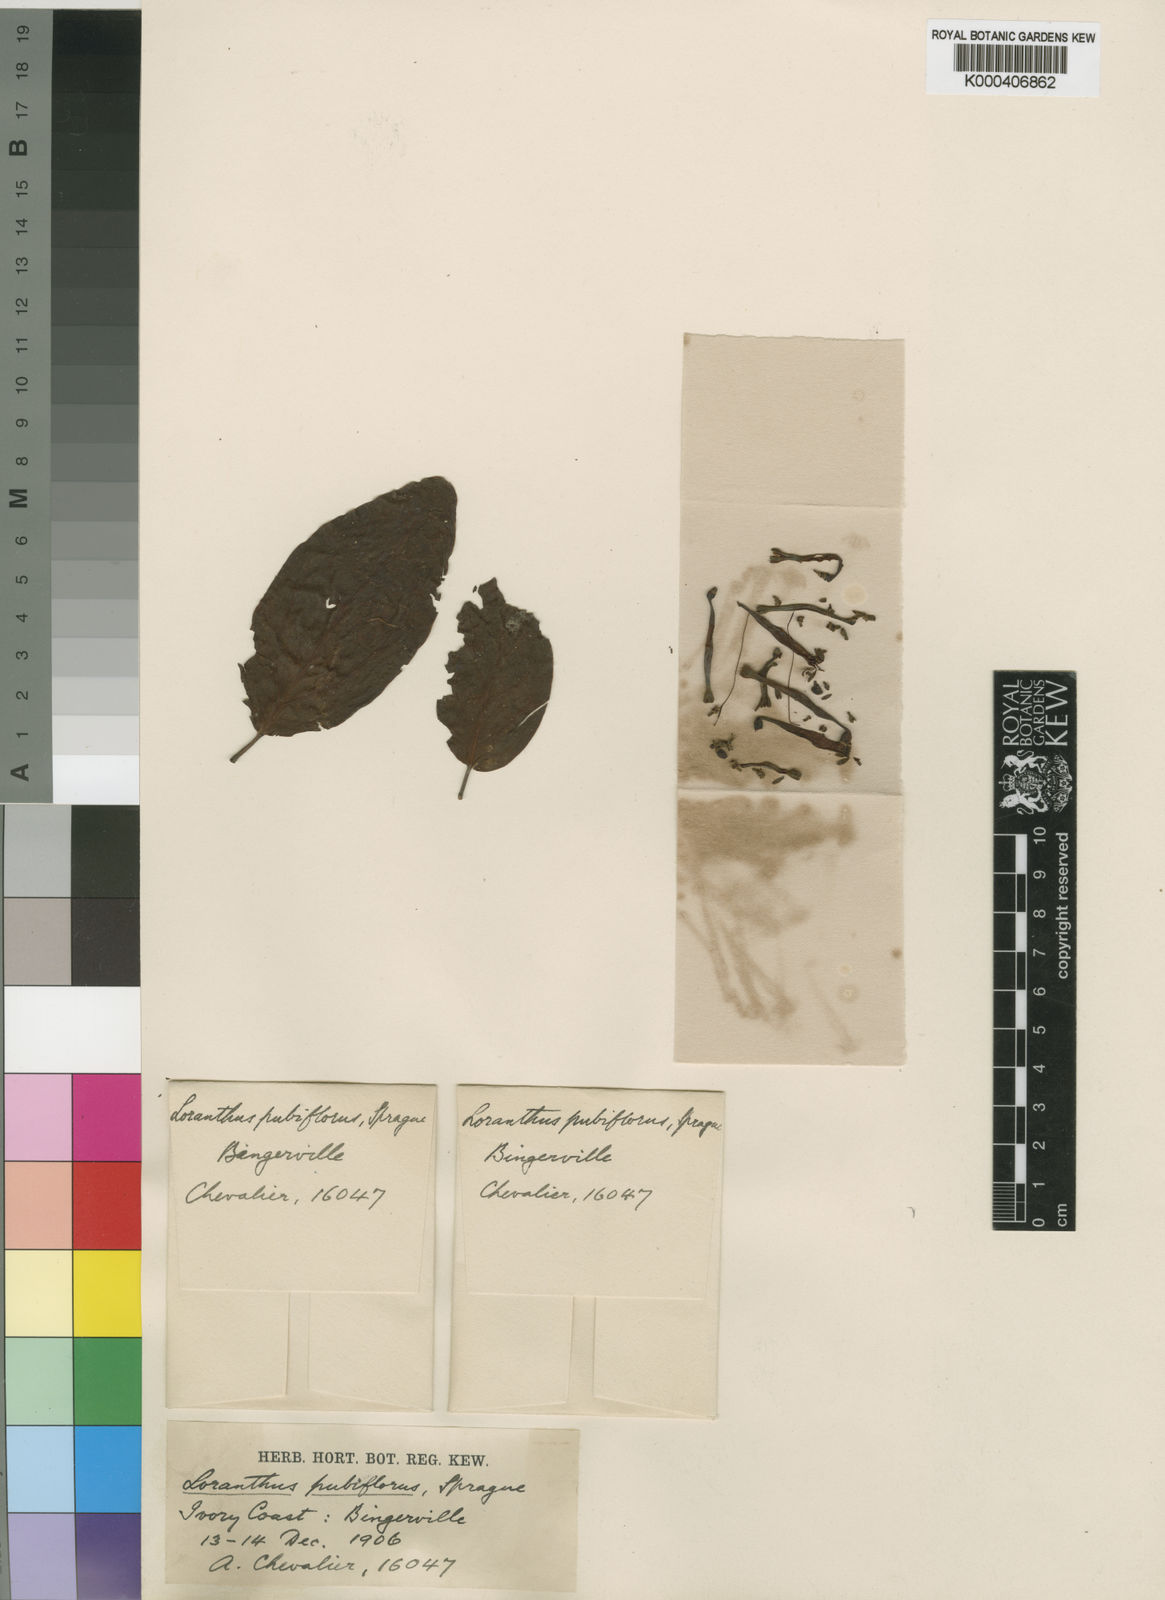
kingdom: Plantae
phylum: Tracheophyta
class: Magnoliopsida
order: Santalales
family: Loranthaceae
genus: Tapinanthus
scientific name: Tapinanthus belvisii
